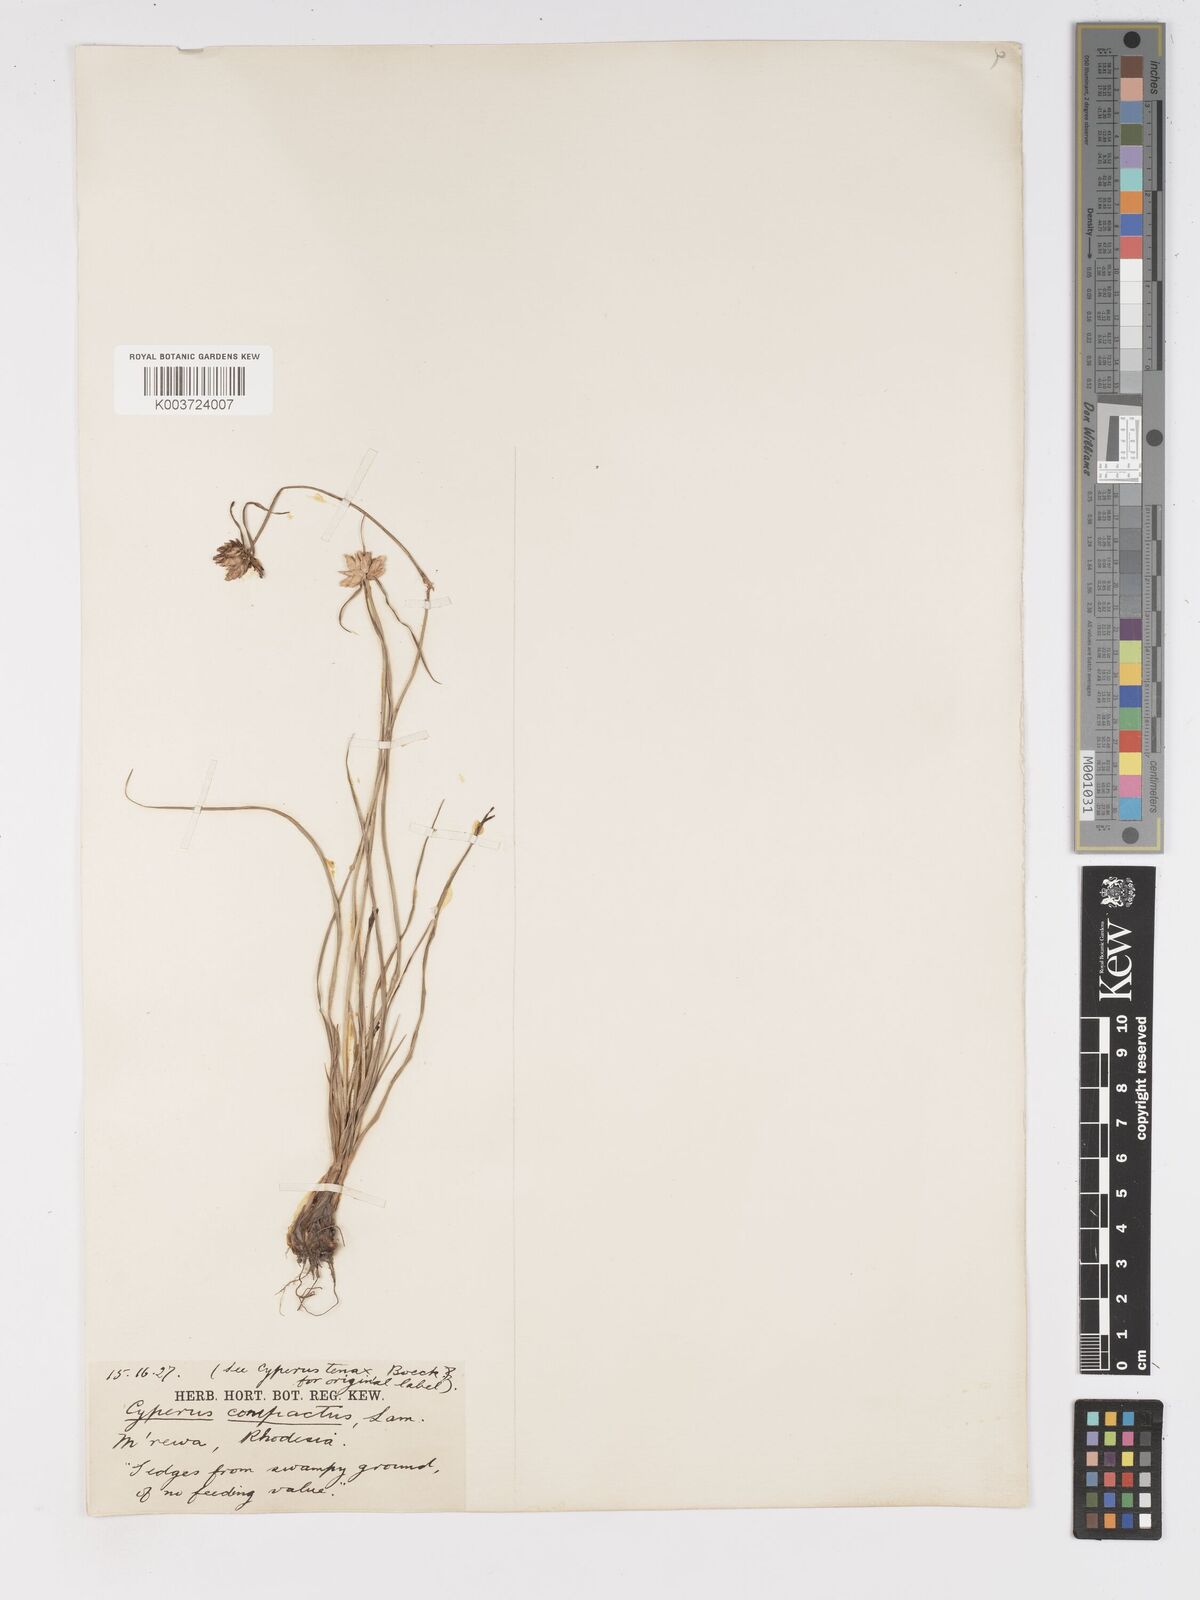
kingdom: Plantae
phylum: Tracheophyta
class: Liliopsida
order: Poales
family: Cyperaceae
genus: Cyperus
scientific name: Cyperus niveus
